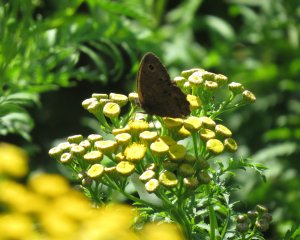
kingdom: Animalia
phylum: Arthropoda
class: Insecta
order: Lepidoptera
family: Nymphalidae
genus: Cercyonis
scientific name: Cercyonis pegala
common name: Common Wood-Nymph
